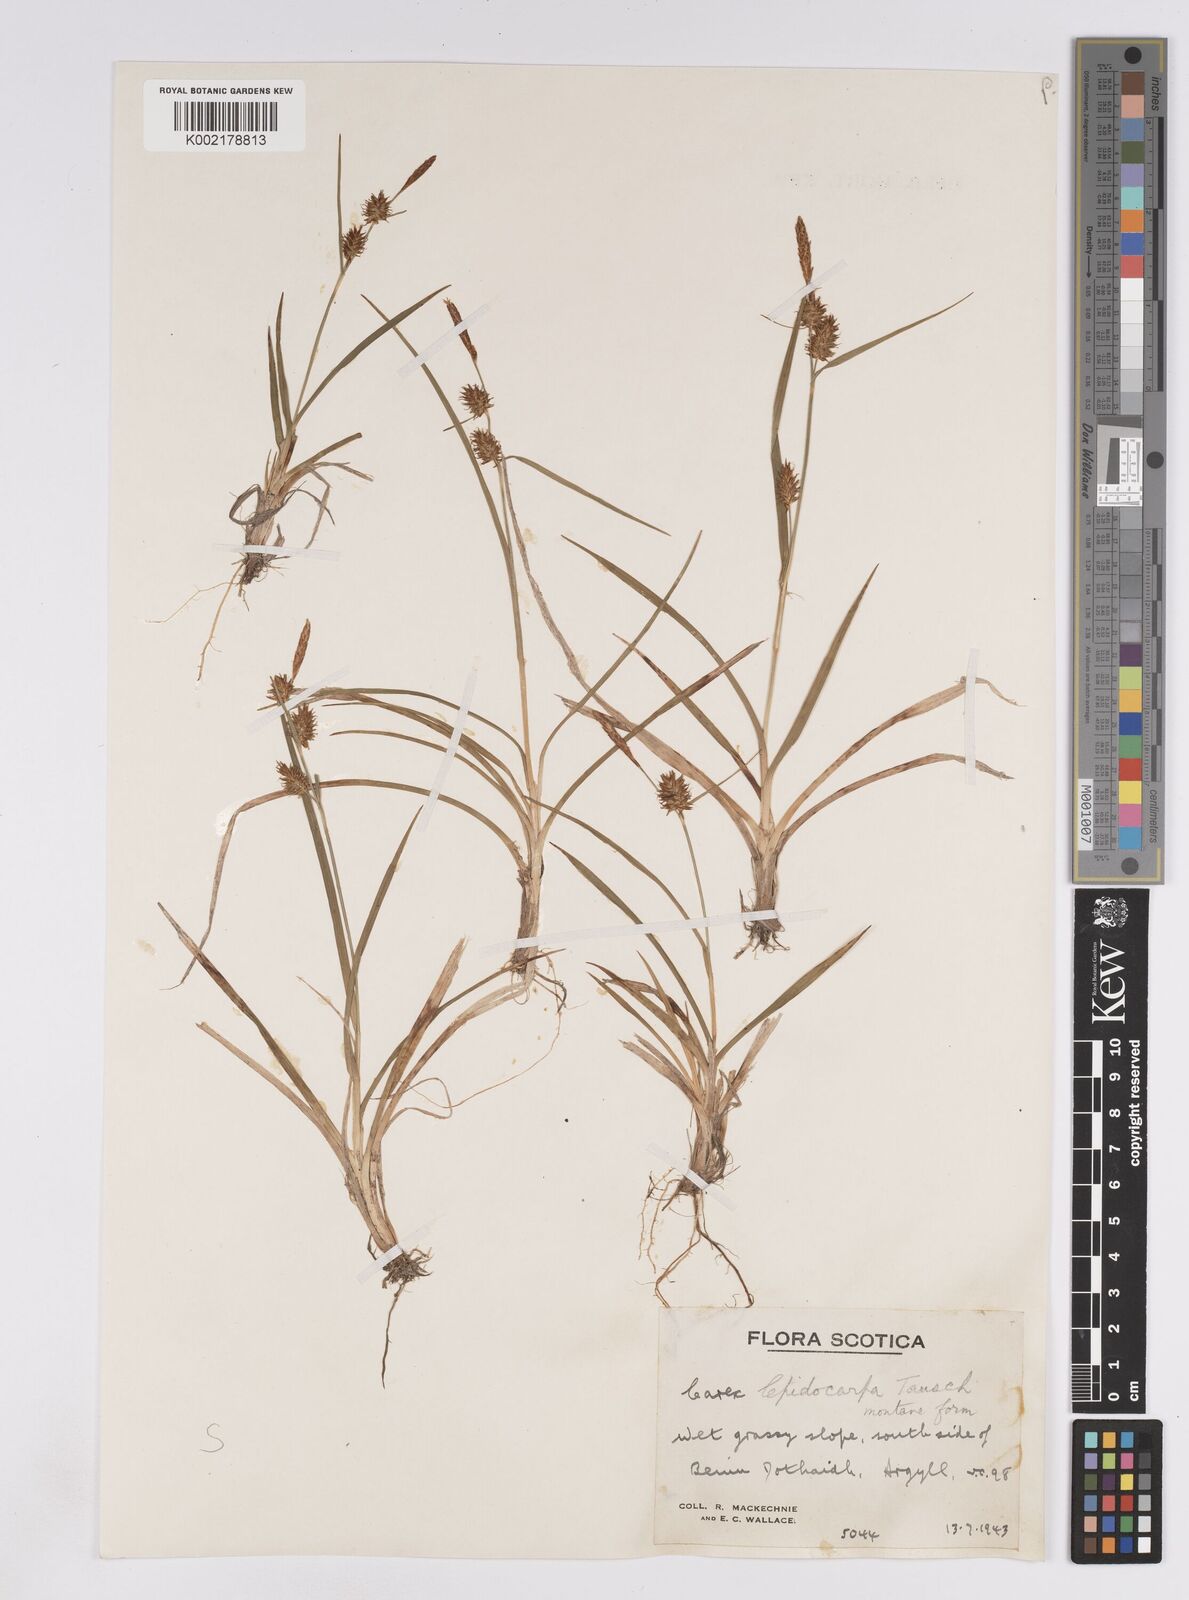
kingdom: Plantae
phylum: Tracheophyta
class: Liliopsida
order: Poales
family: Cyperaceae
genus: Carex
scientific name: Carex lepidocarpa
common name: Long-stalked yellow-sedge
